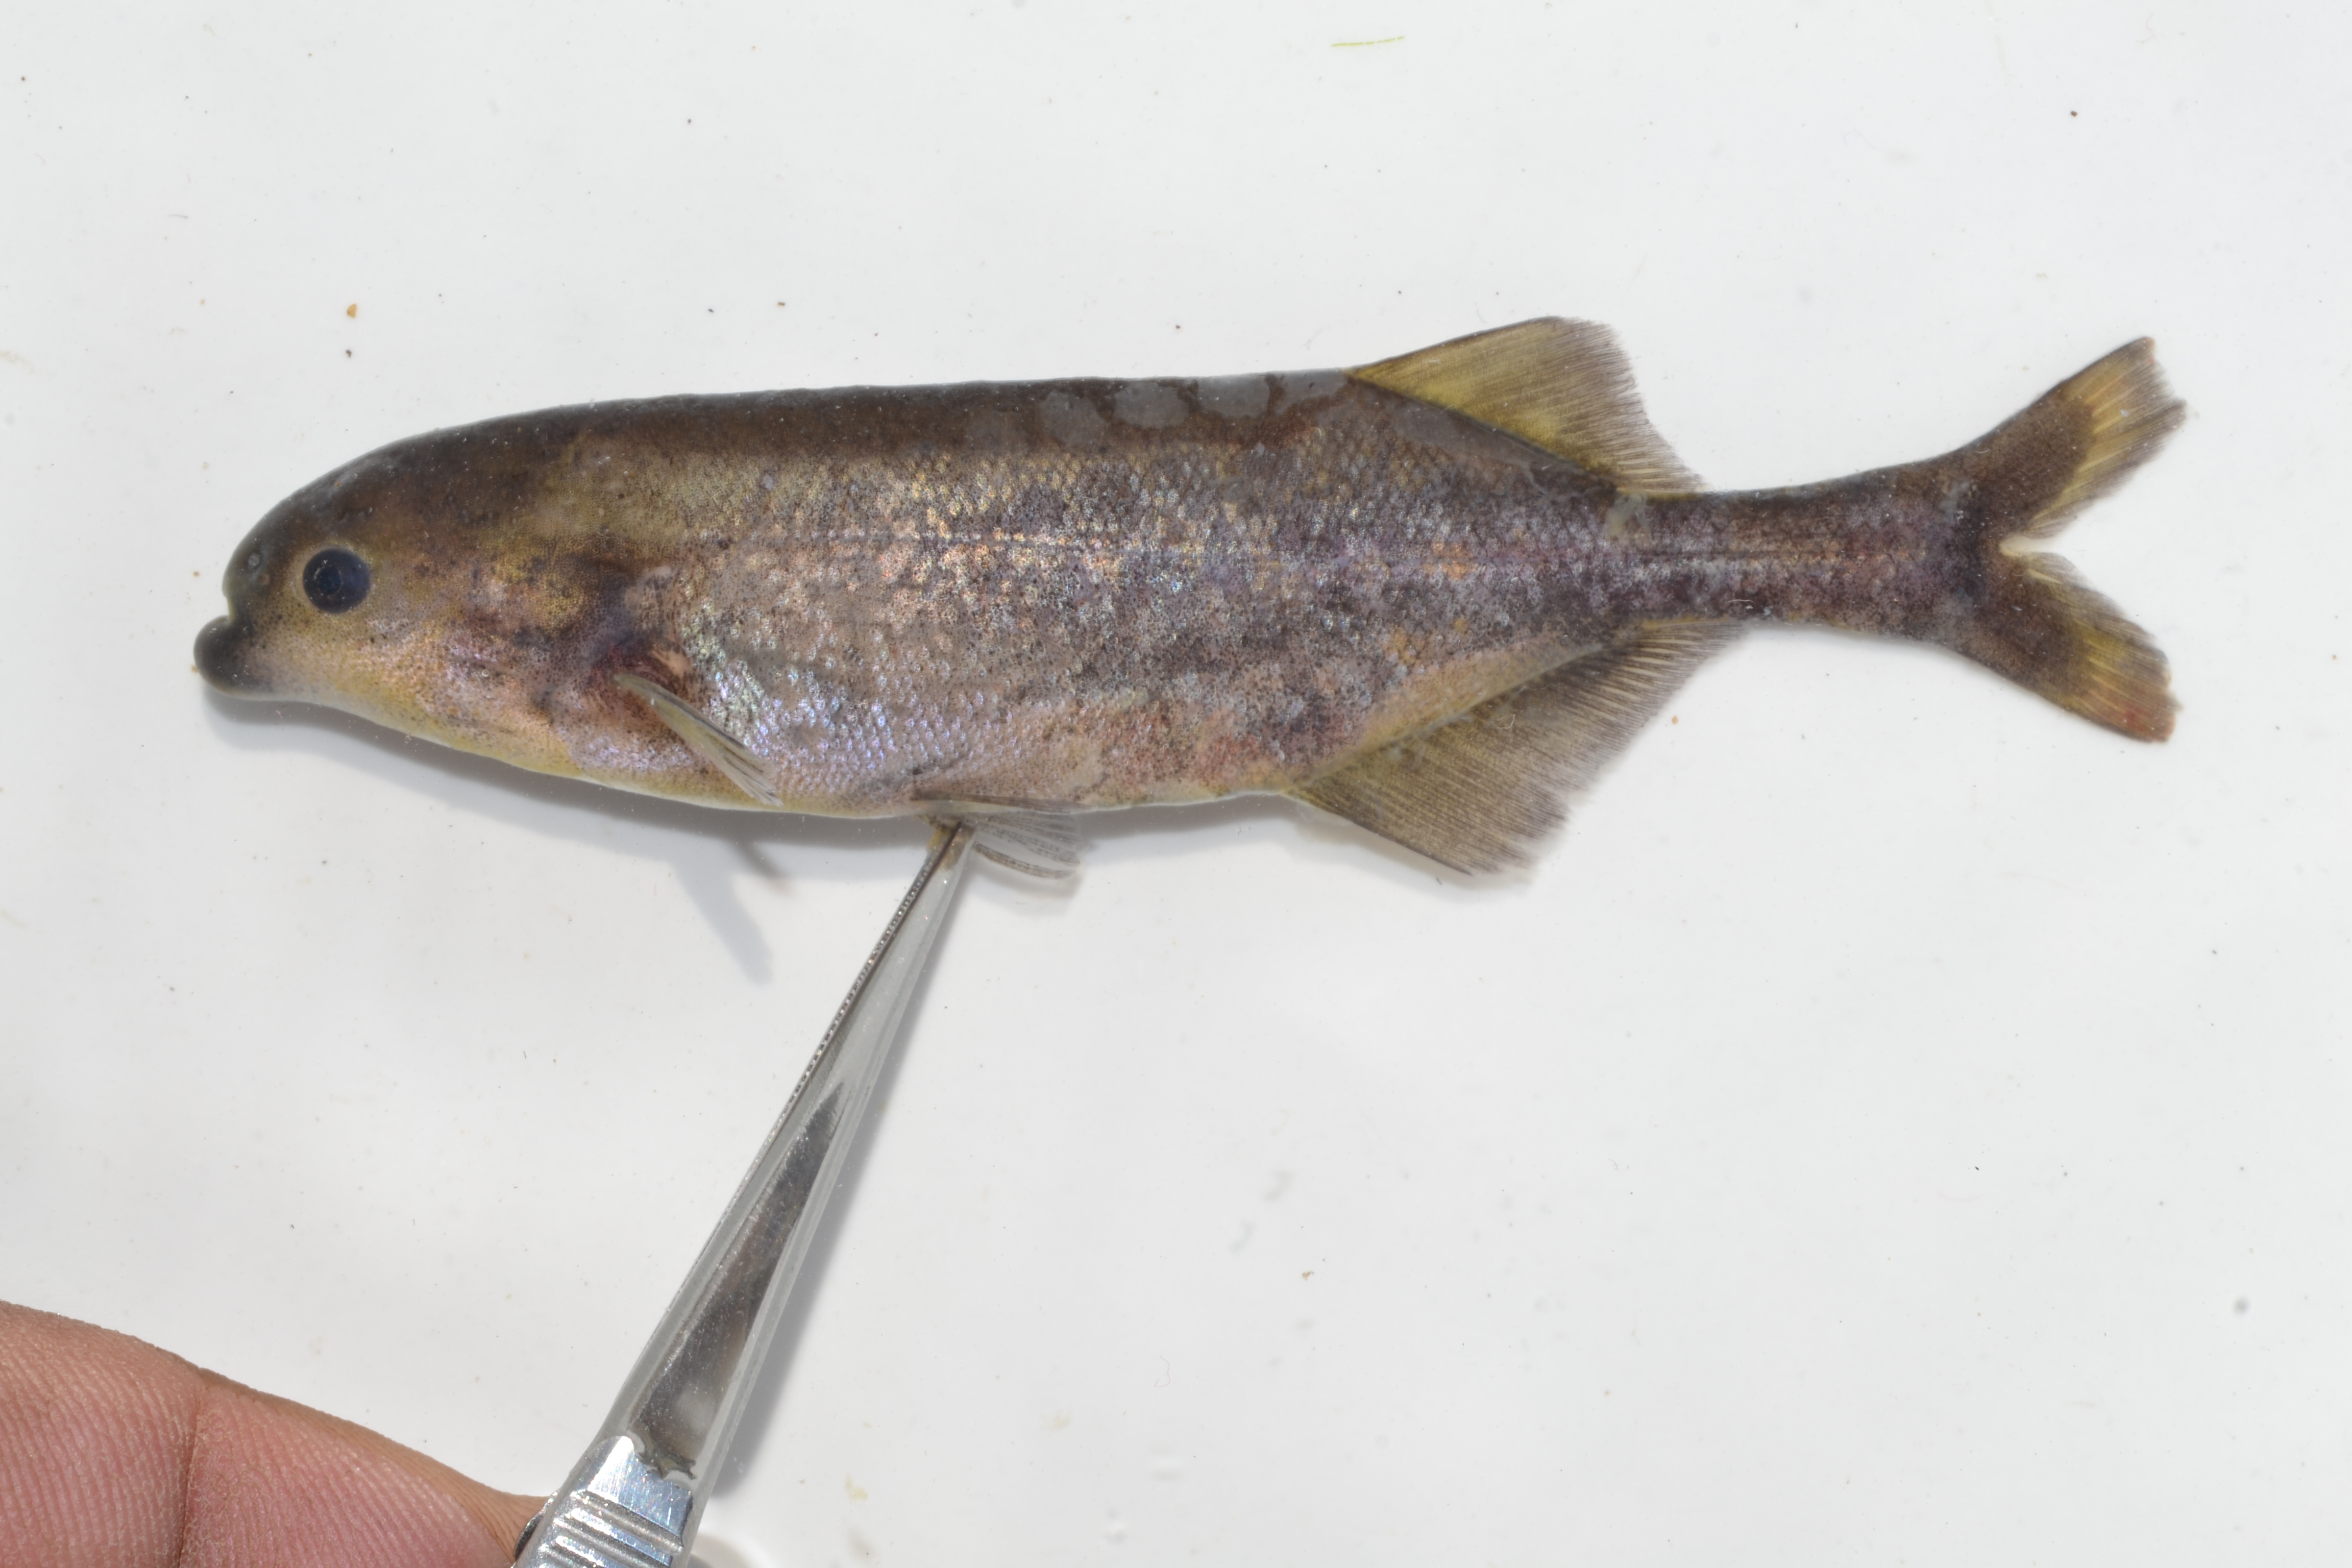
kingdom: Animalia
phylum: Chordata
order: Osteoglossiformes
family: Mormyridae
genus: Marcusenius
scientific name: Marcusenius pongolensis
